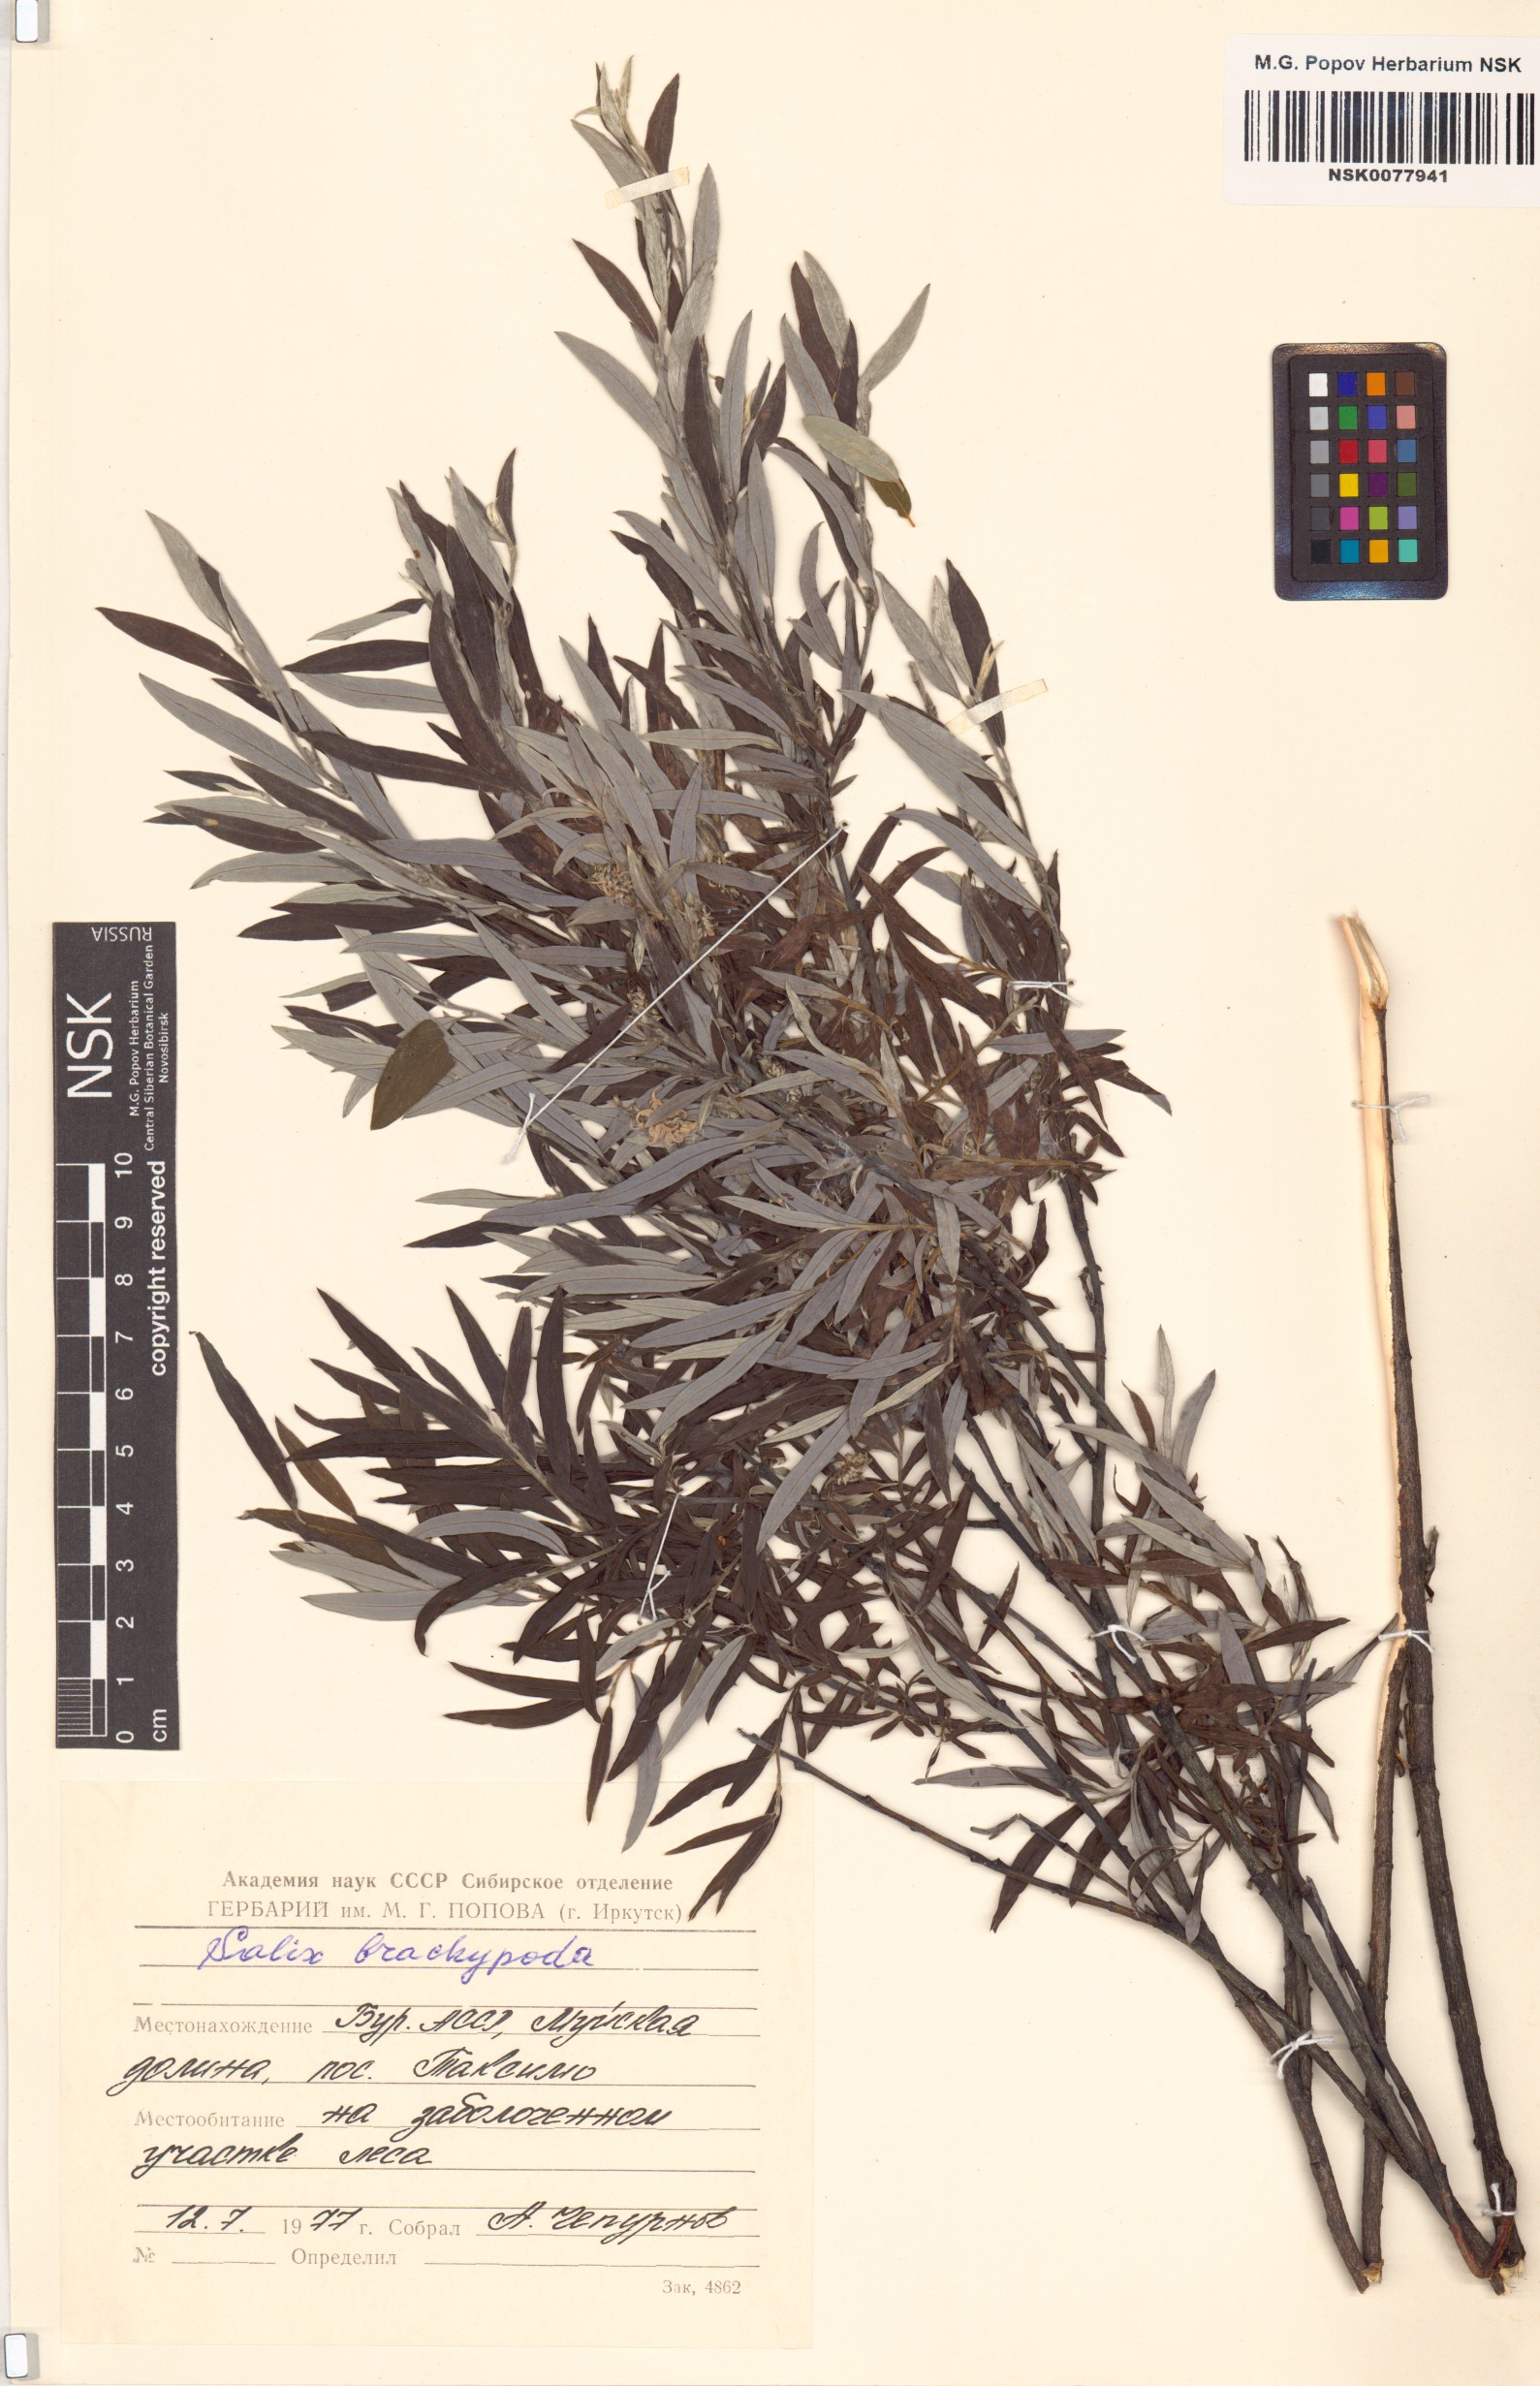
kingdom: Plantae
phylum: Tracheophyta
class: Magnoliopsida
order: Malpighiales
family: Salicaceae
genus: Salix
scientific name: Salix brachypoda
